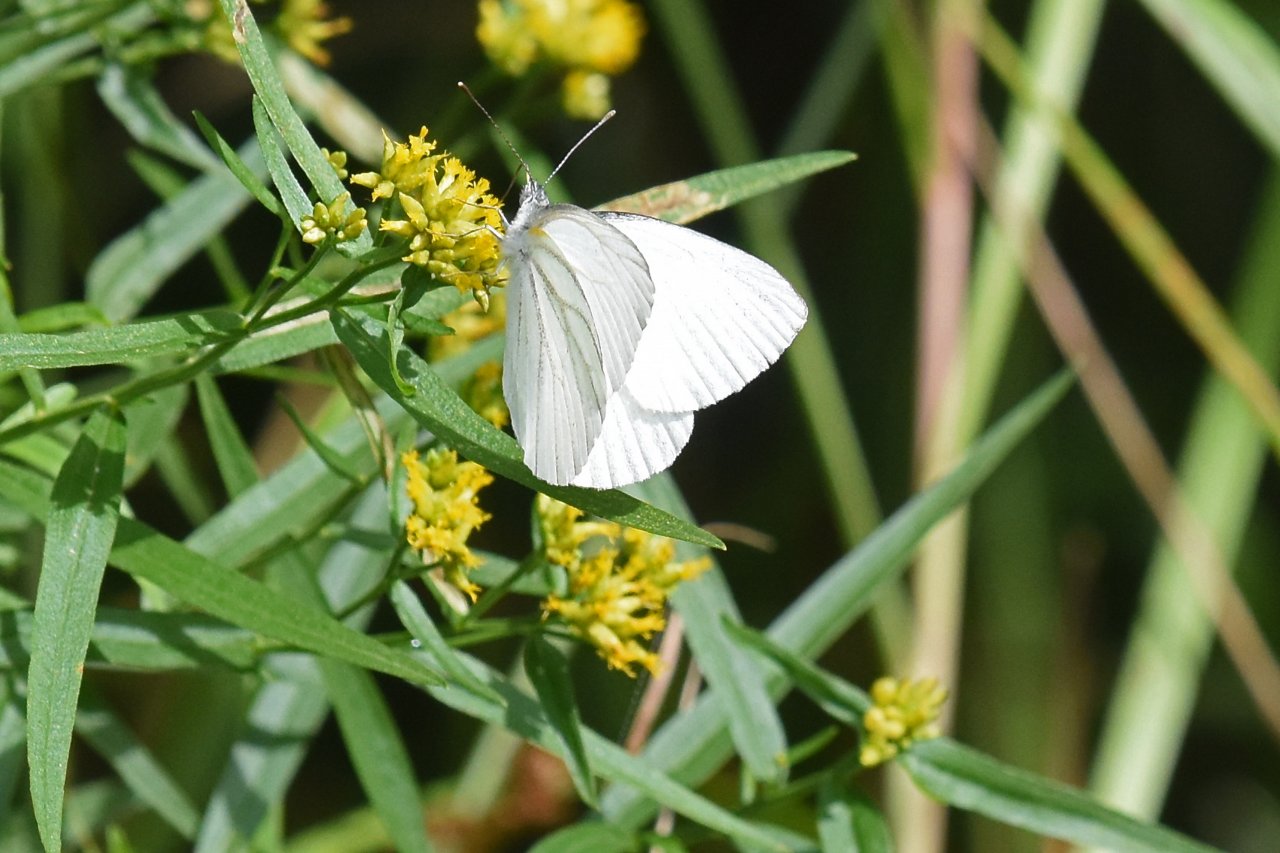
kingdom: Animalia
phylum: Arthropoda
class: Insecta
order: Lepidoptera
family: Pieridae
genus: Pieris
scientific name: Pieris oleracea
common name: Mustard White
